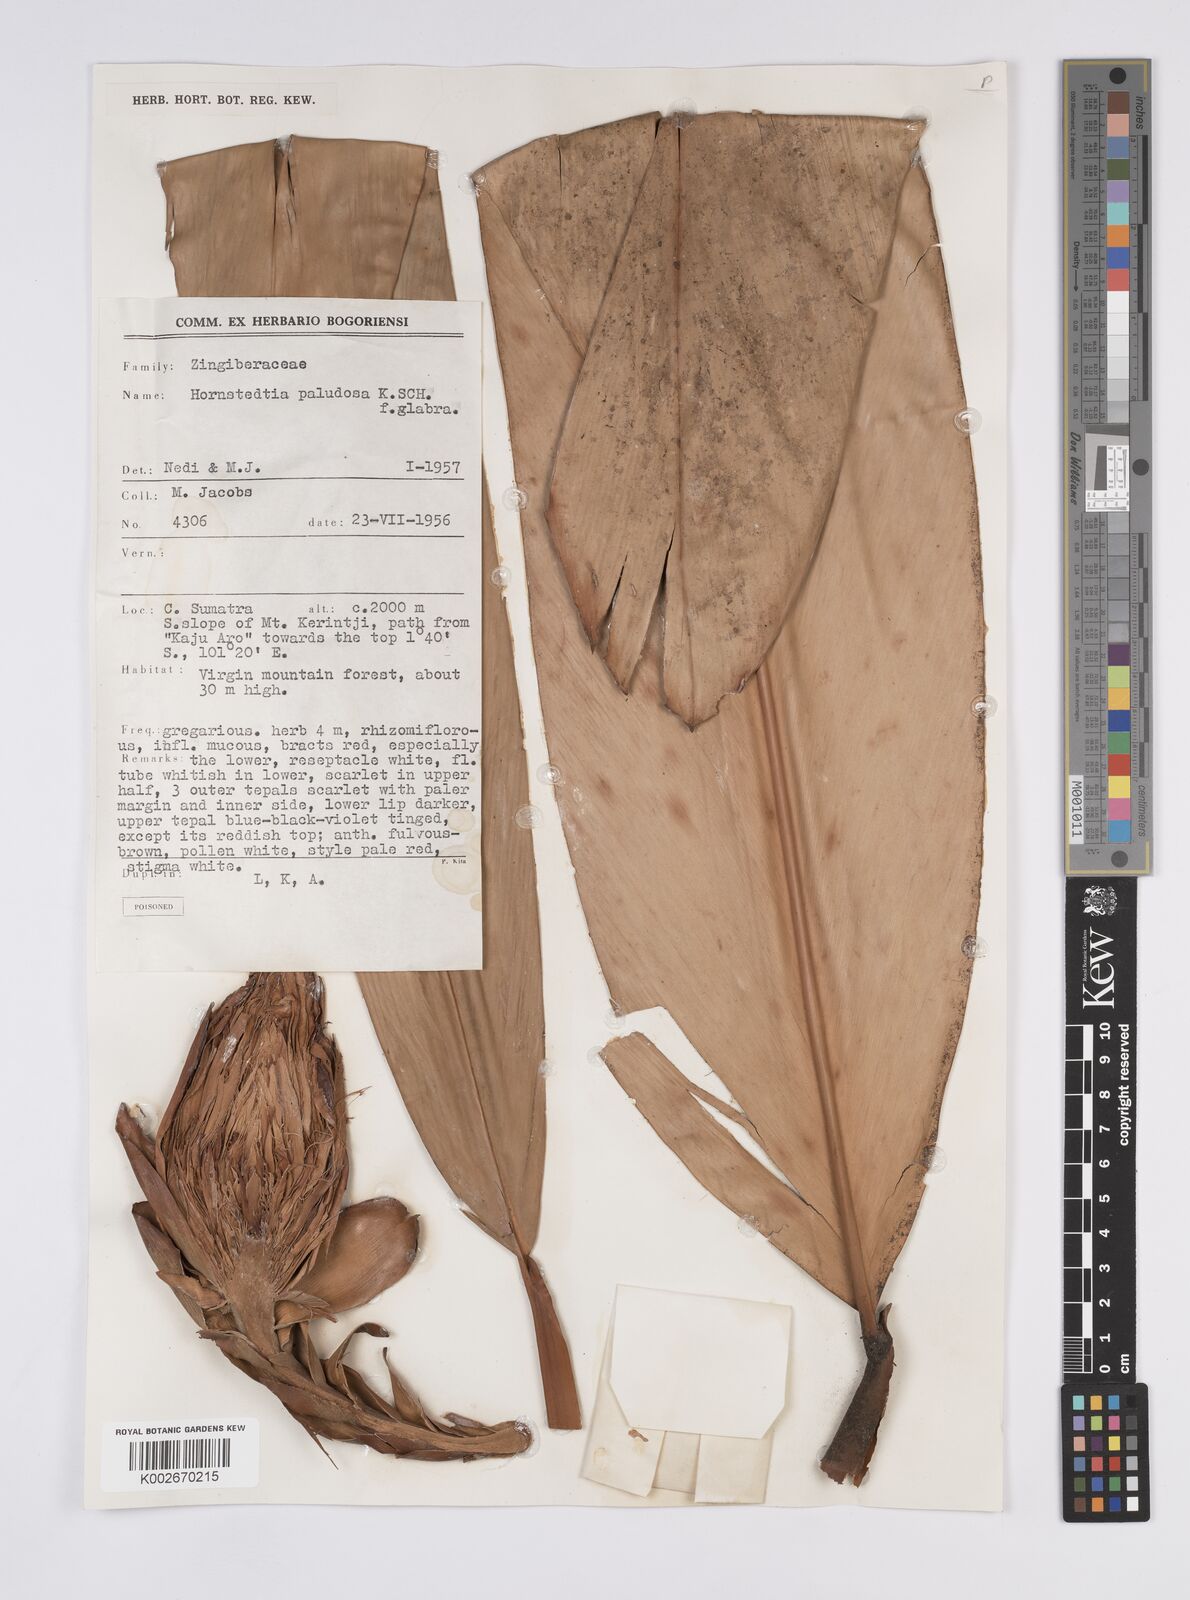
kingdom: Plantae
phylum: Tracheophyta
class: Liliopsida
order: Zingiberales
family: Zingiberaceae
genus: Hornstedtia
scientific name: Hornstedtia paludosa
